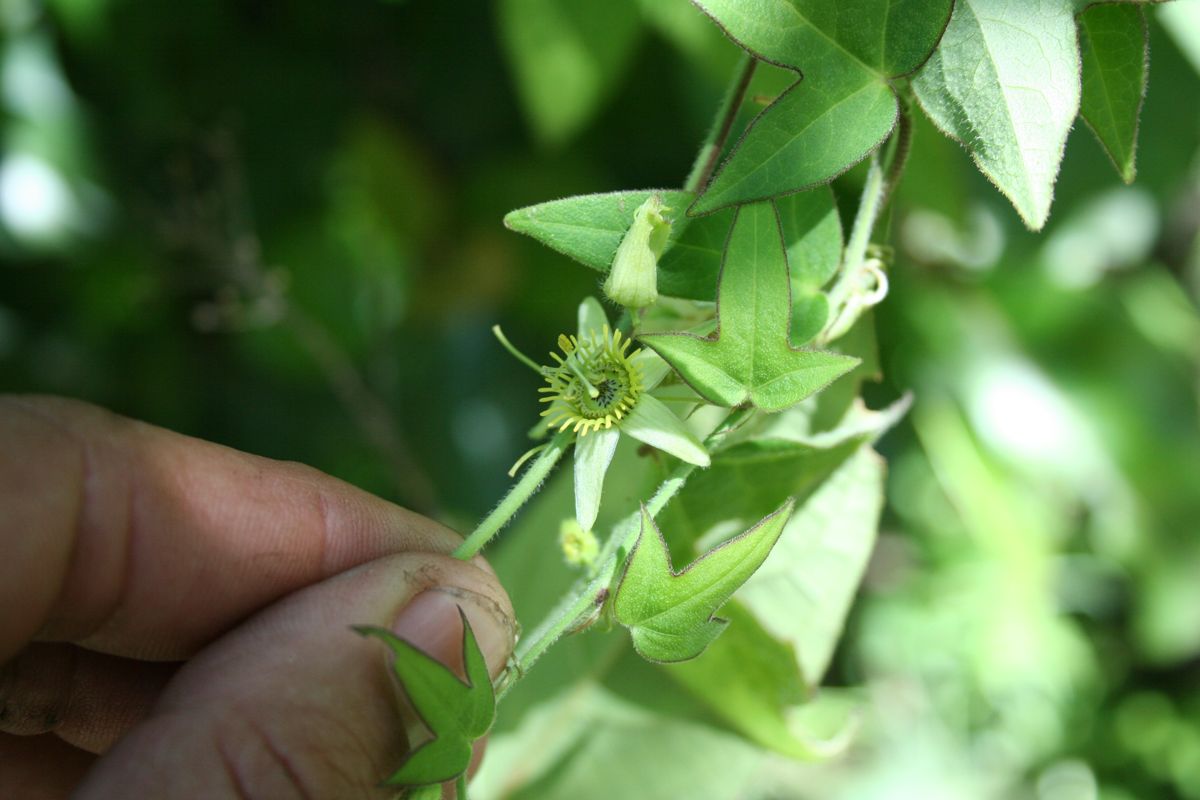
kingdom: Plantae
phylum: Tracheophyta
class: Magnoliopsida
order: Malpighiales
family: Passifloraceae
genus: Passiflora
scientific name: Passiflora suberosa
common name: Wild passionfruit
